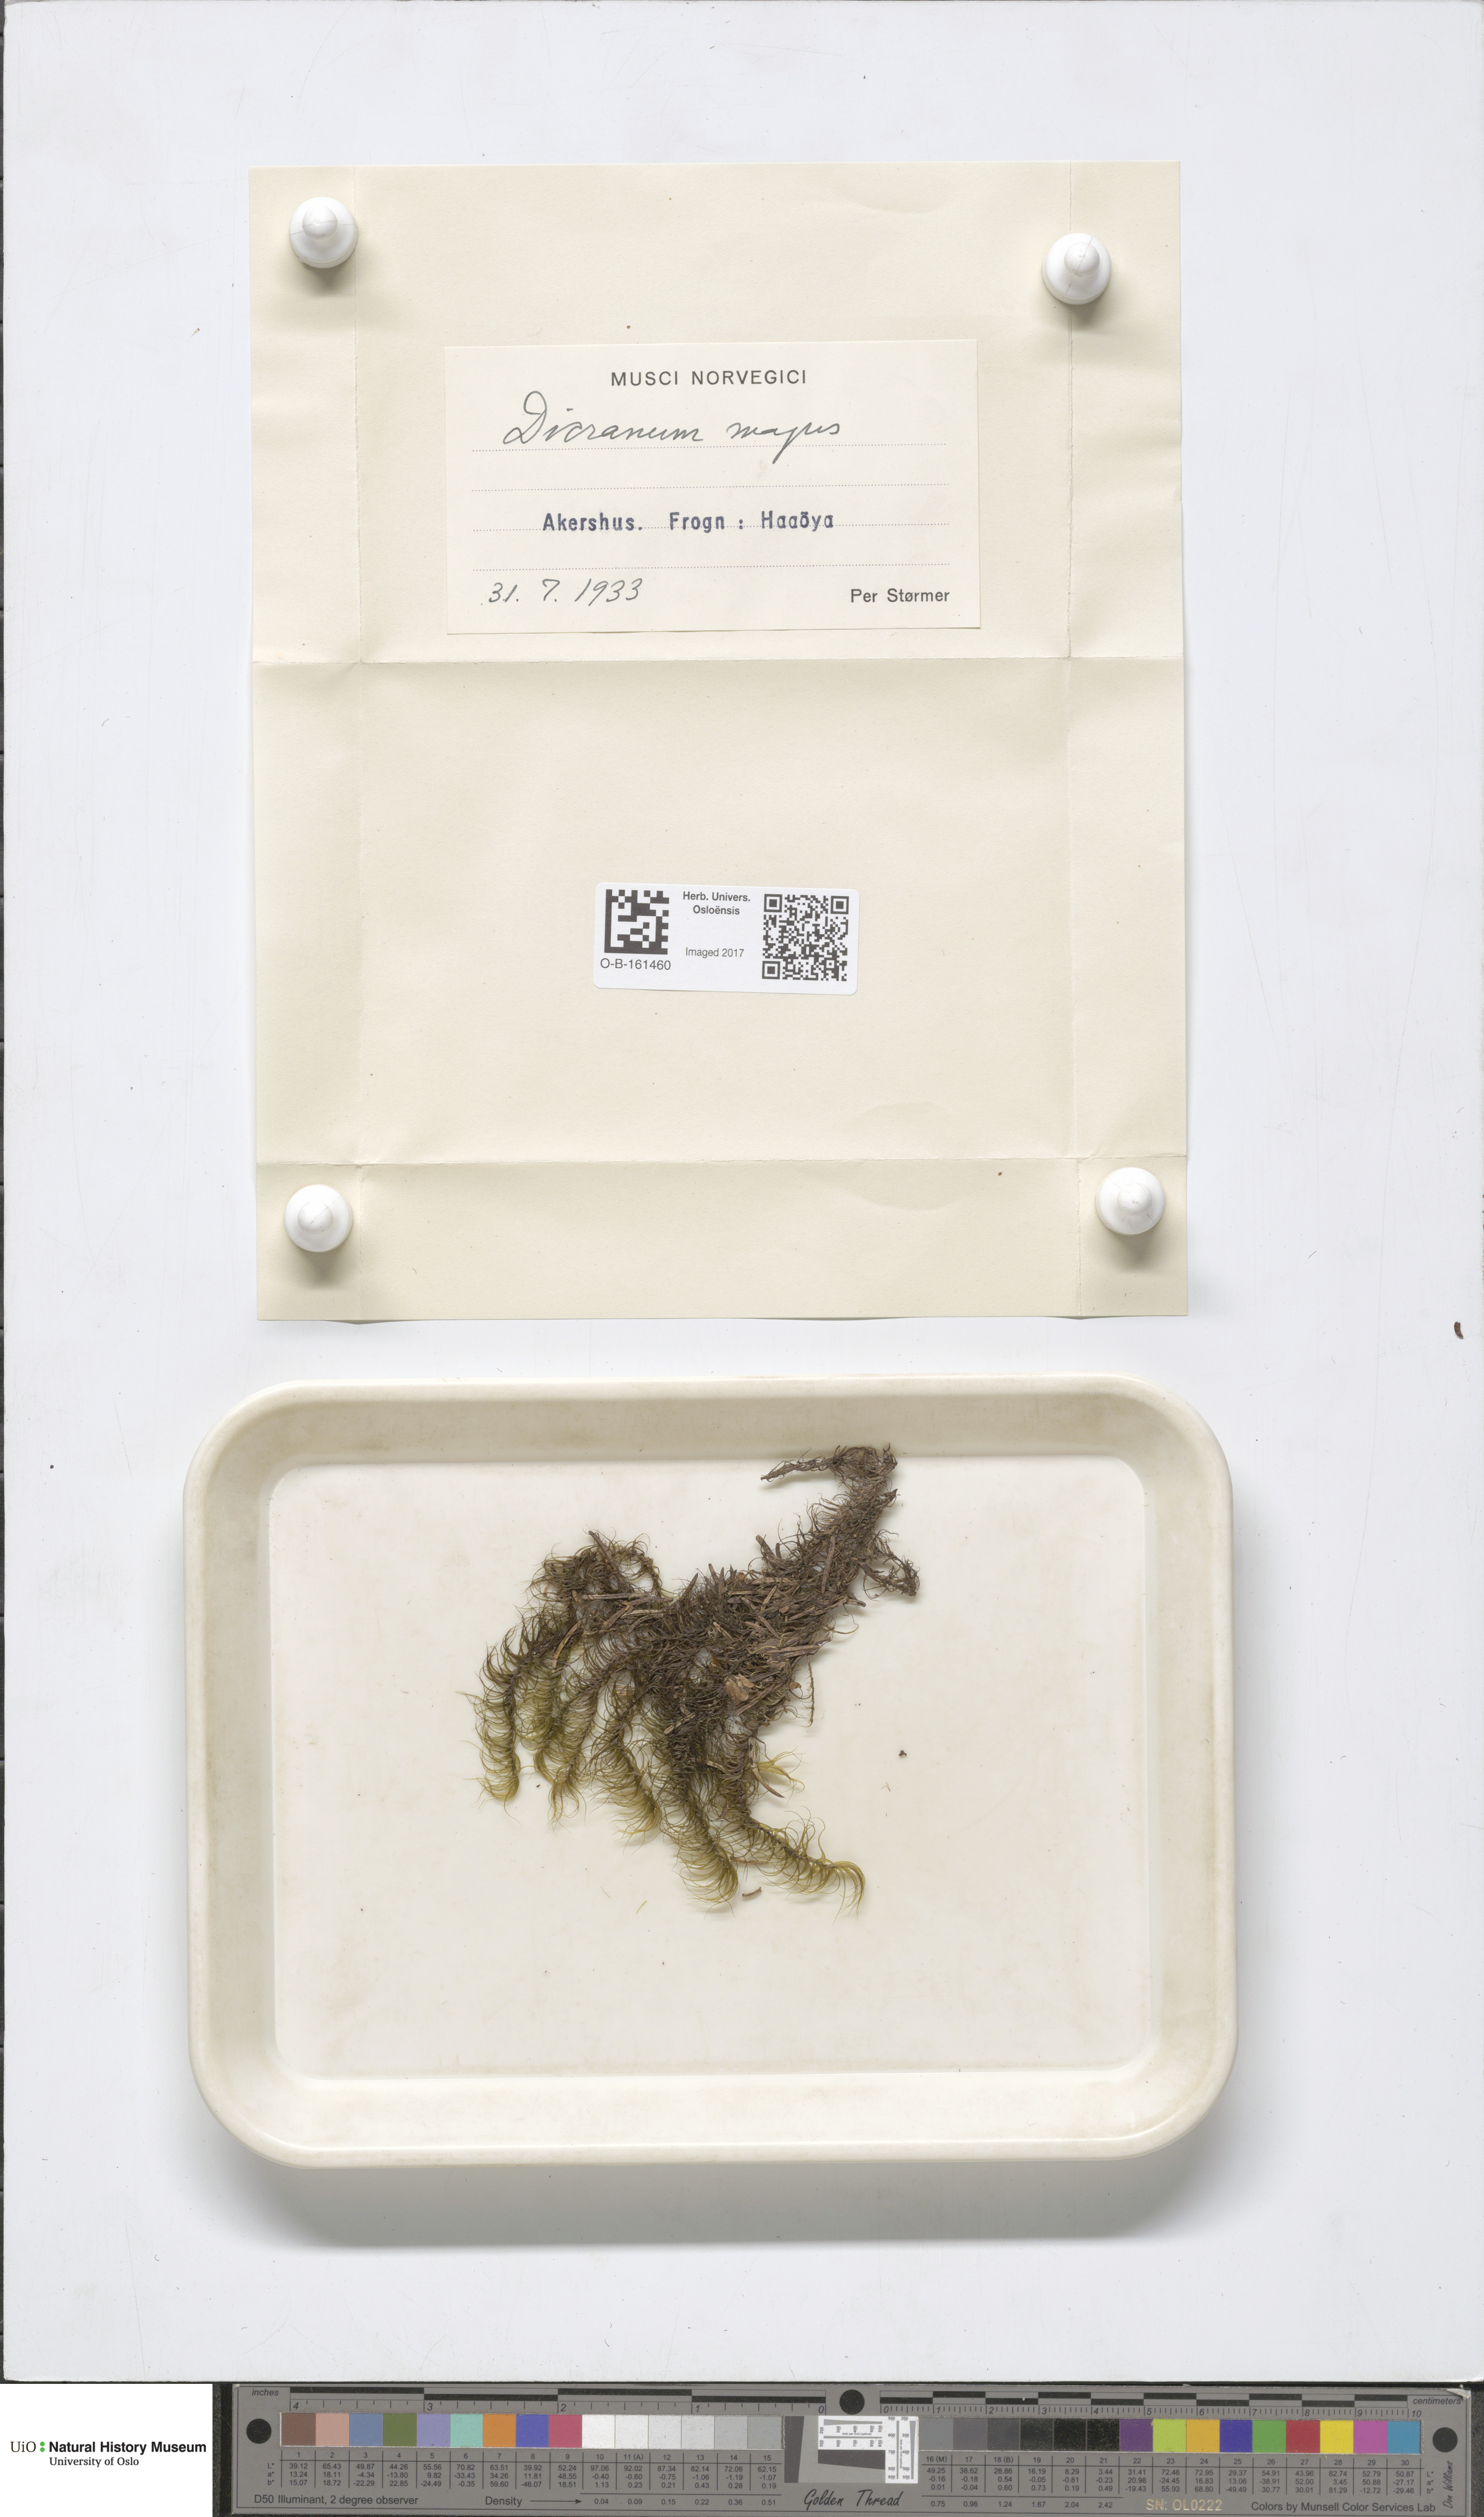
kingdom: Plantae
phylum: Bryophyta
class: Bryopsida
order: Dicranales
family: Dicranaceae
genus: Dicranum
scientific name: Dicranum majus
